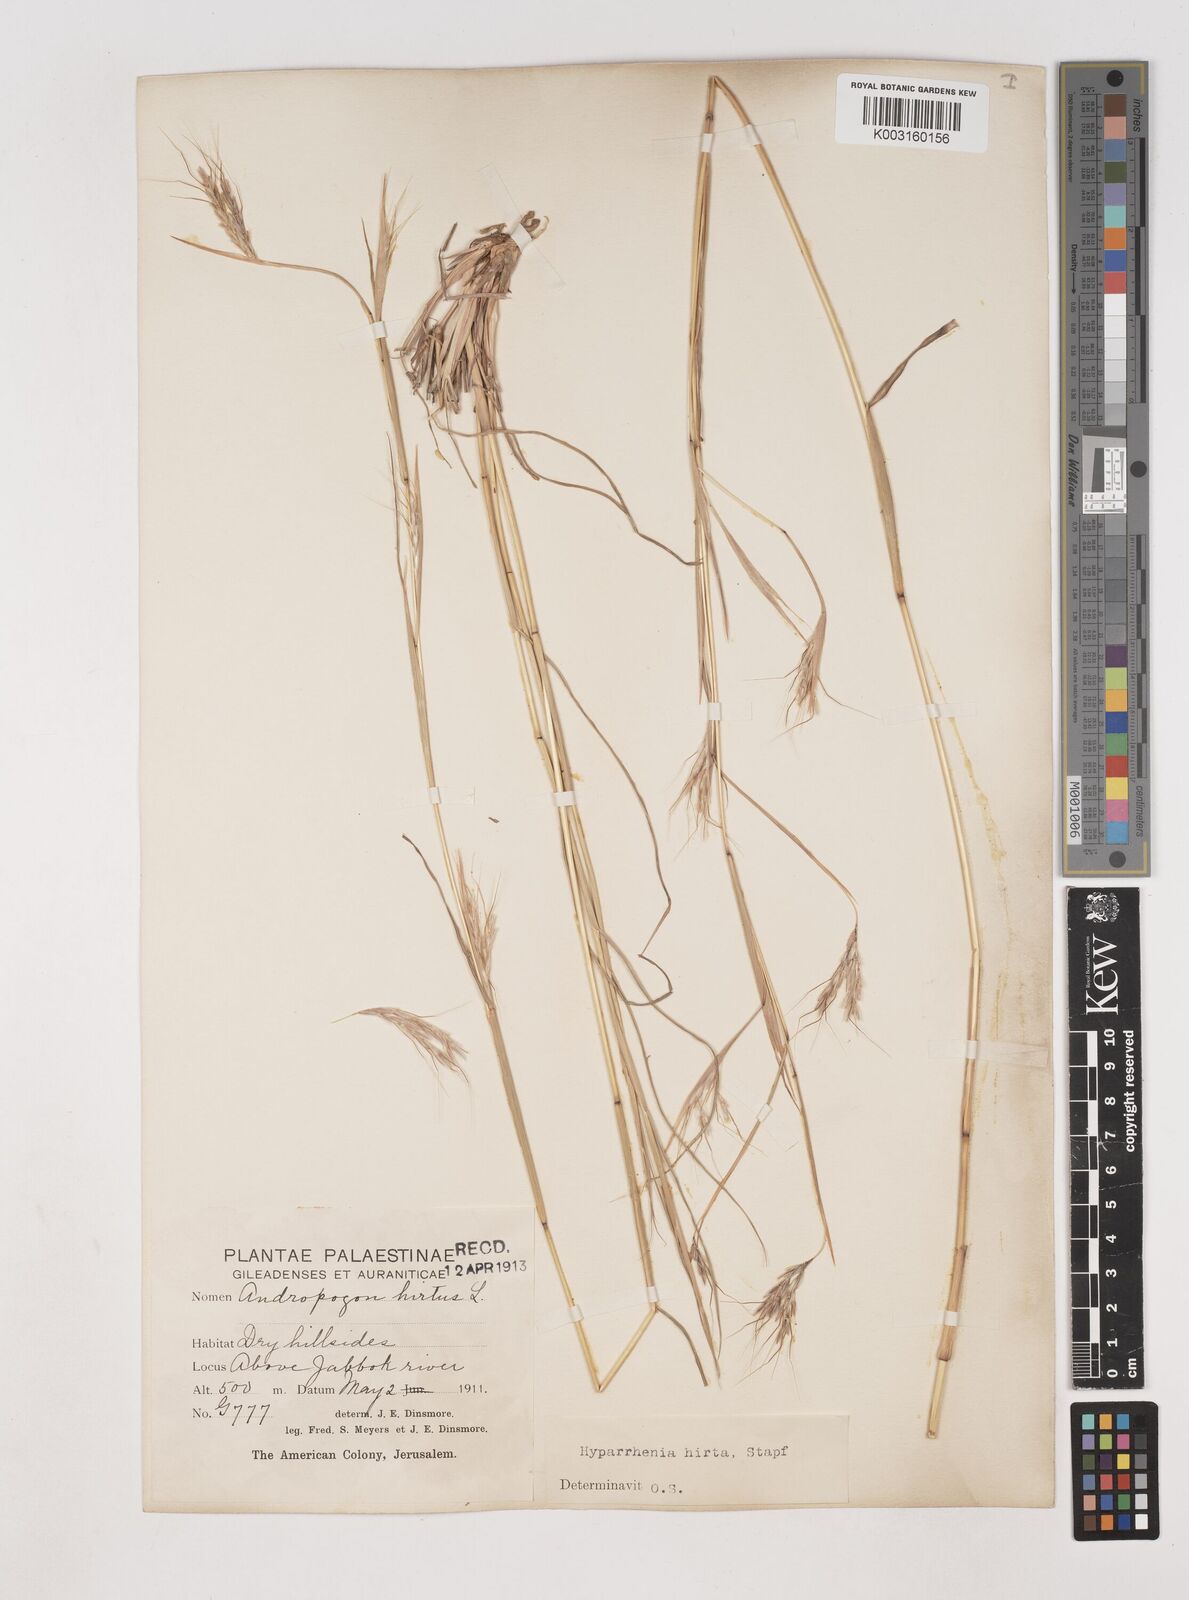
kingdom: Plantae
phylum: Tracheophyta
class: Liliopsida
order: Poales
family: Poaceae
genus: Hyparrhenia
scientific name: Hyparrhenia hirta
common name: Thatching grass
